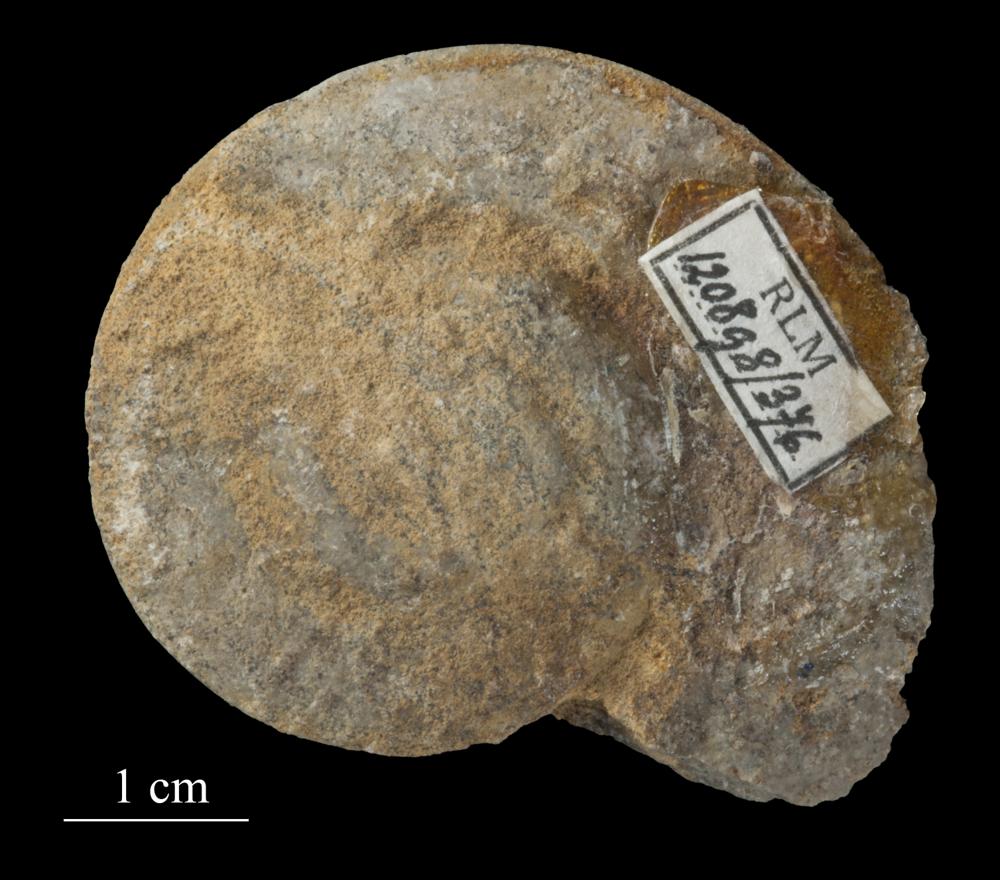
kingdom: Animalia
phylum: Mollusca
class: Gastropoda
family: Lesueurillidae
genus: Pararaphistoma
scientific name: Pararaphistoma Helicites qualteriata
